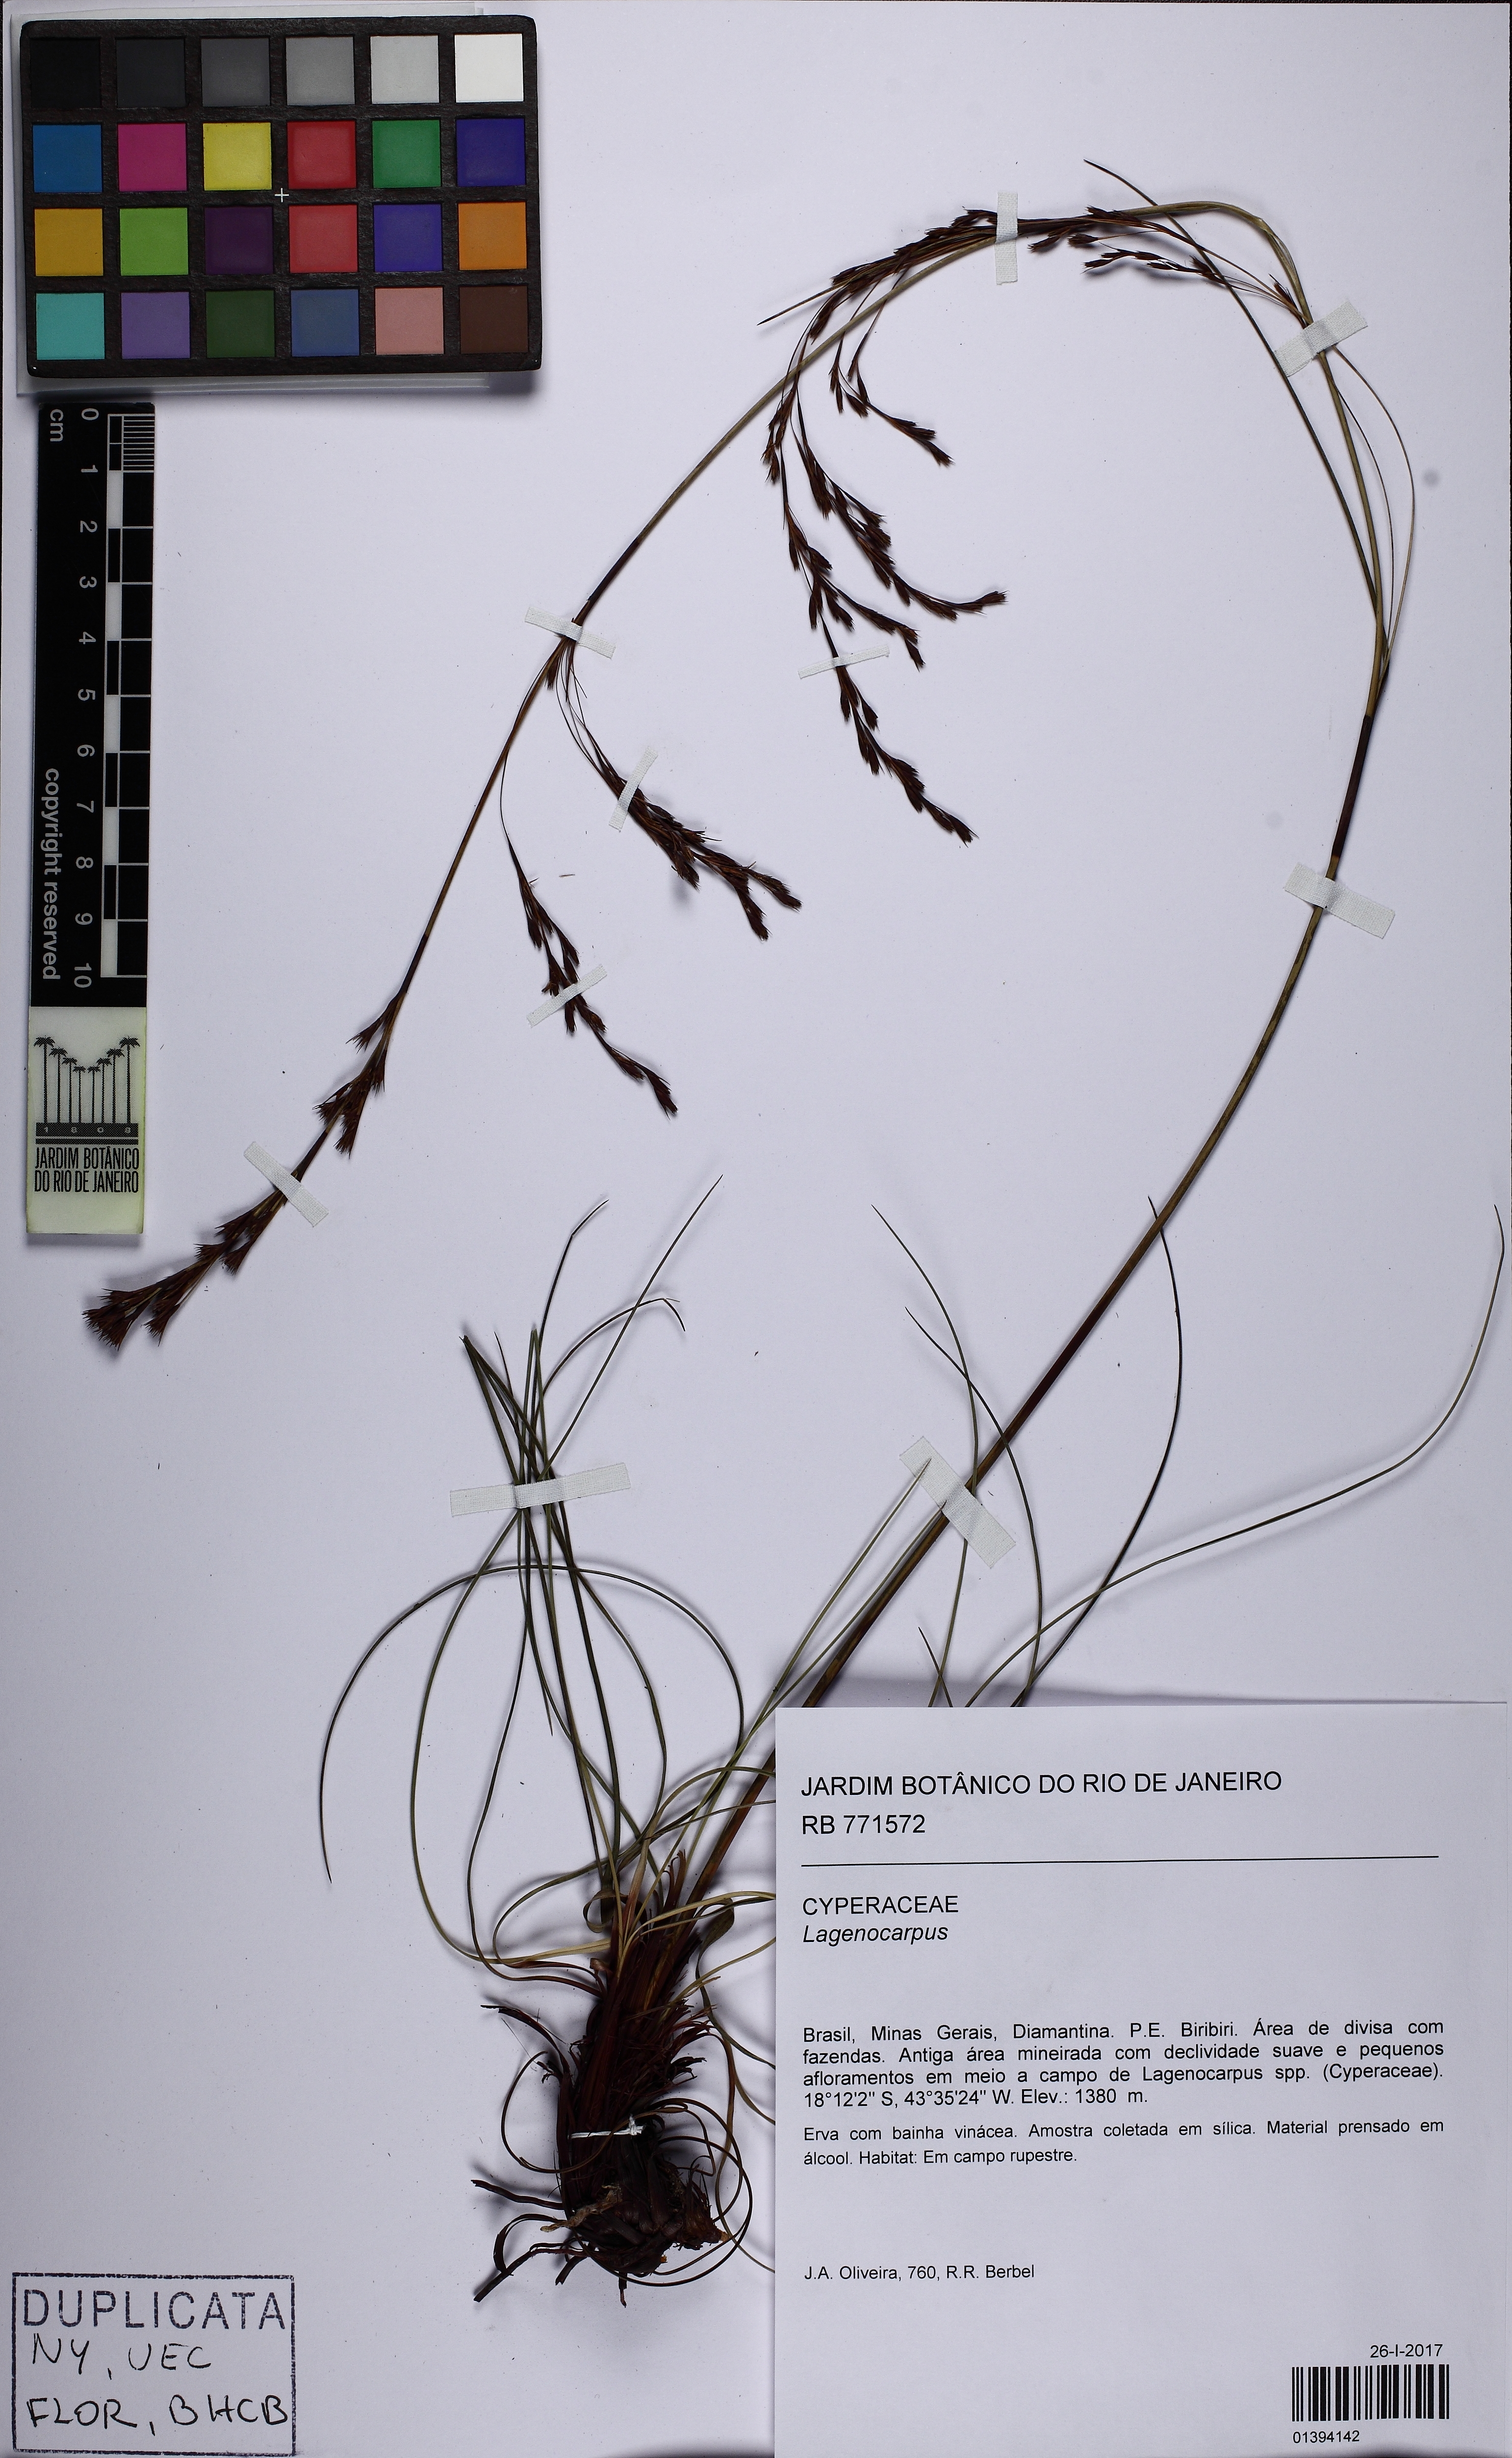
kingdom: Plantae
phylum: Tracheophyta
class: Liliopsida
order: Poales
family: Cyperaceae
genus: Lagenocarpus
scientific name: Lagenocarpus
